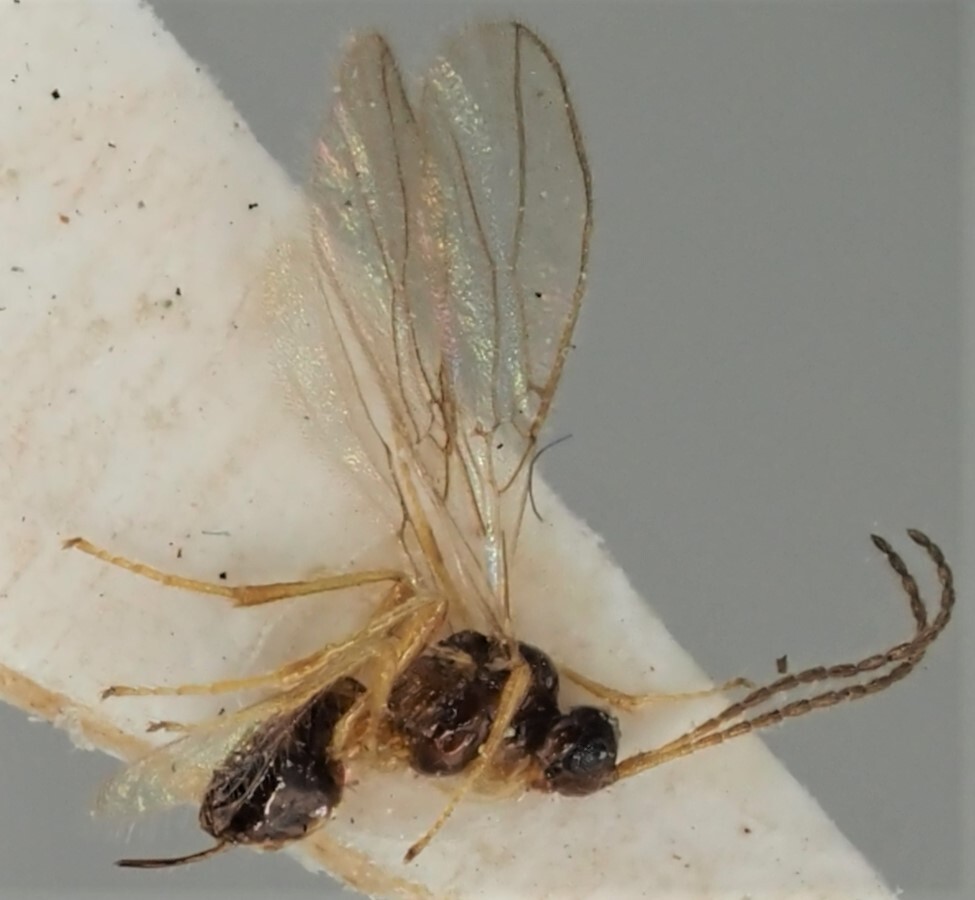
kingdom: Animalia
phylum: Arthropoda
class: Insecta
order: Hymenoptera
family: Braconidae
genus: Aspilota
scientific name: Aspilota aureliana
